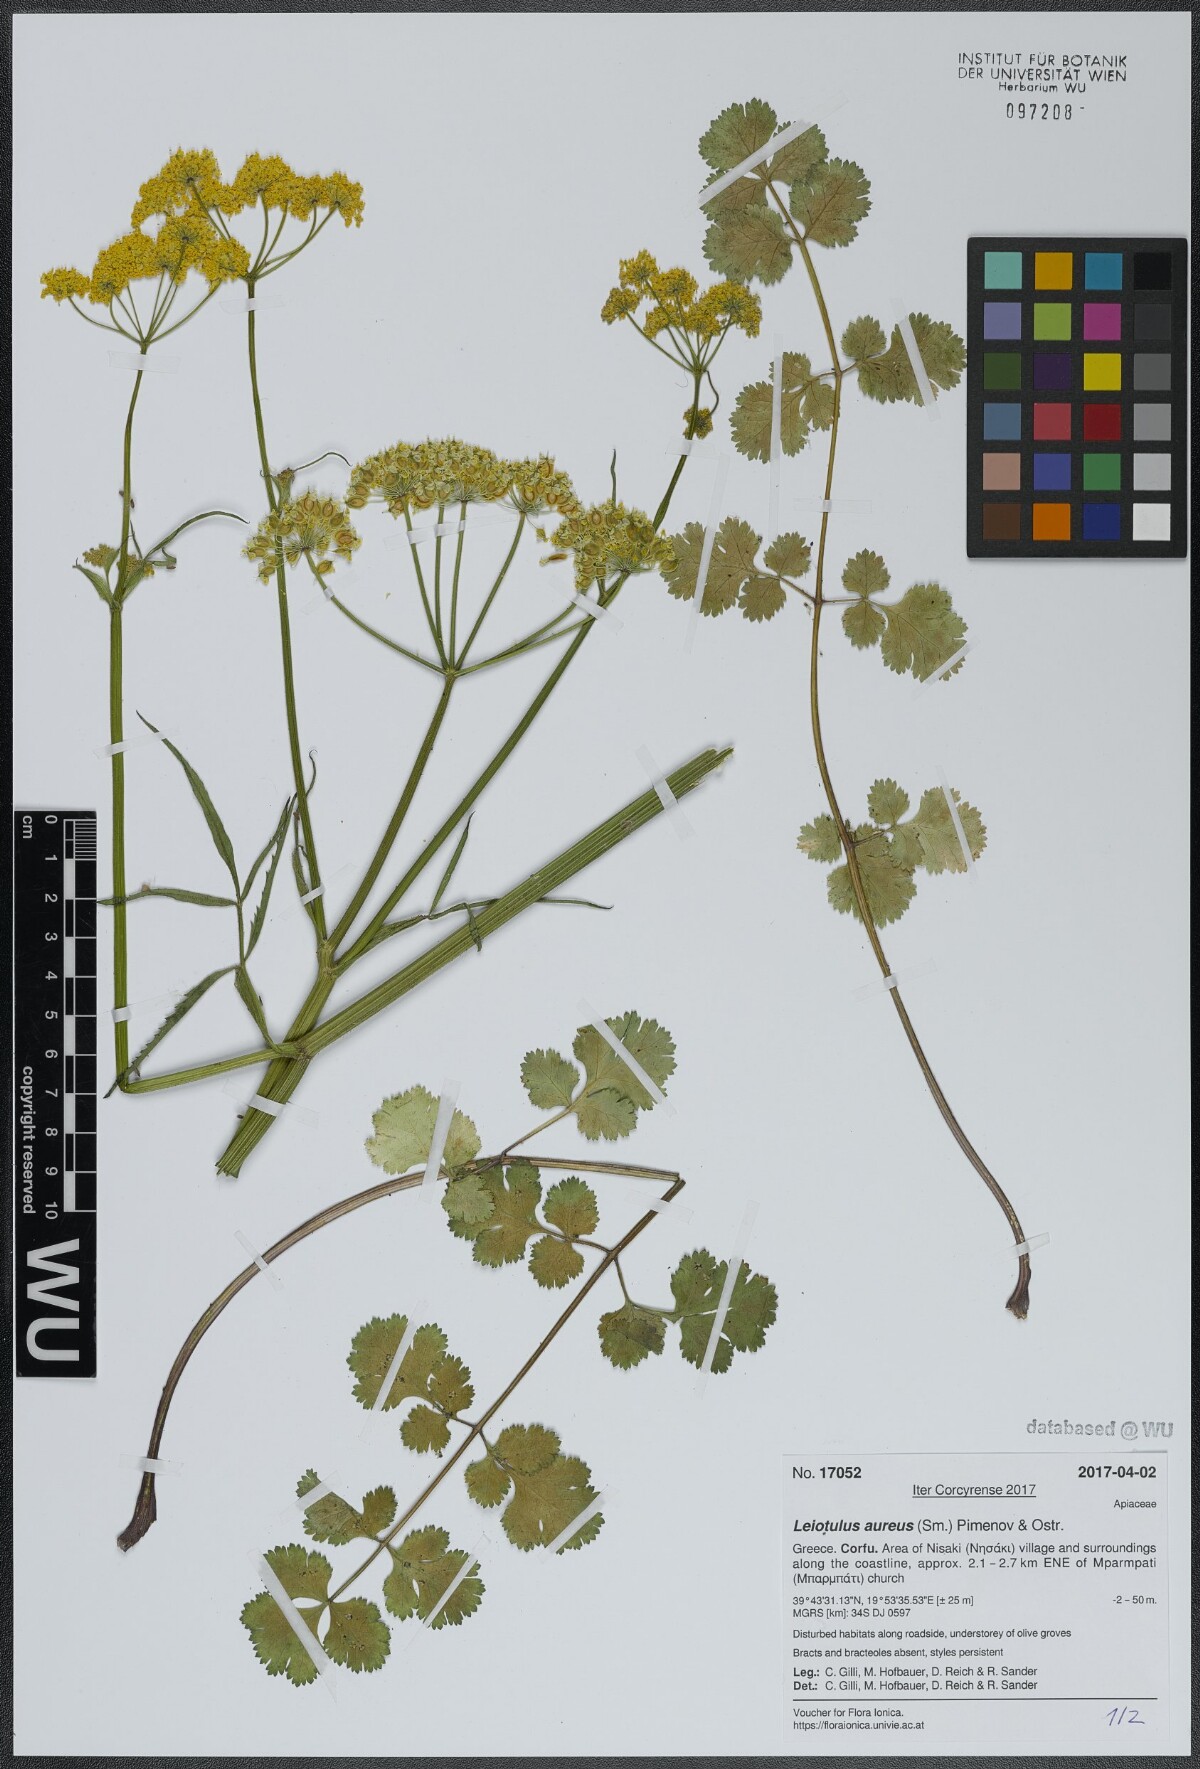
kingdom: Plantae
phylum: Tracheophyta
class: Magnoliopsida
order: Apiales
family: Apiaceae
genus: Leiotulus
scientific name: Leiotulus aureus
